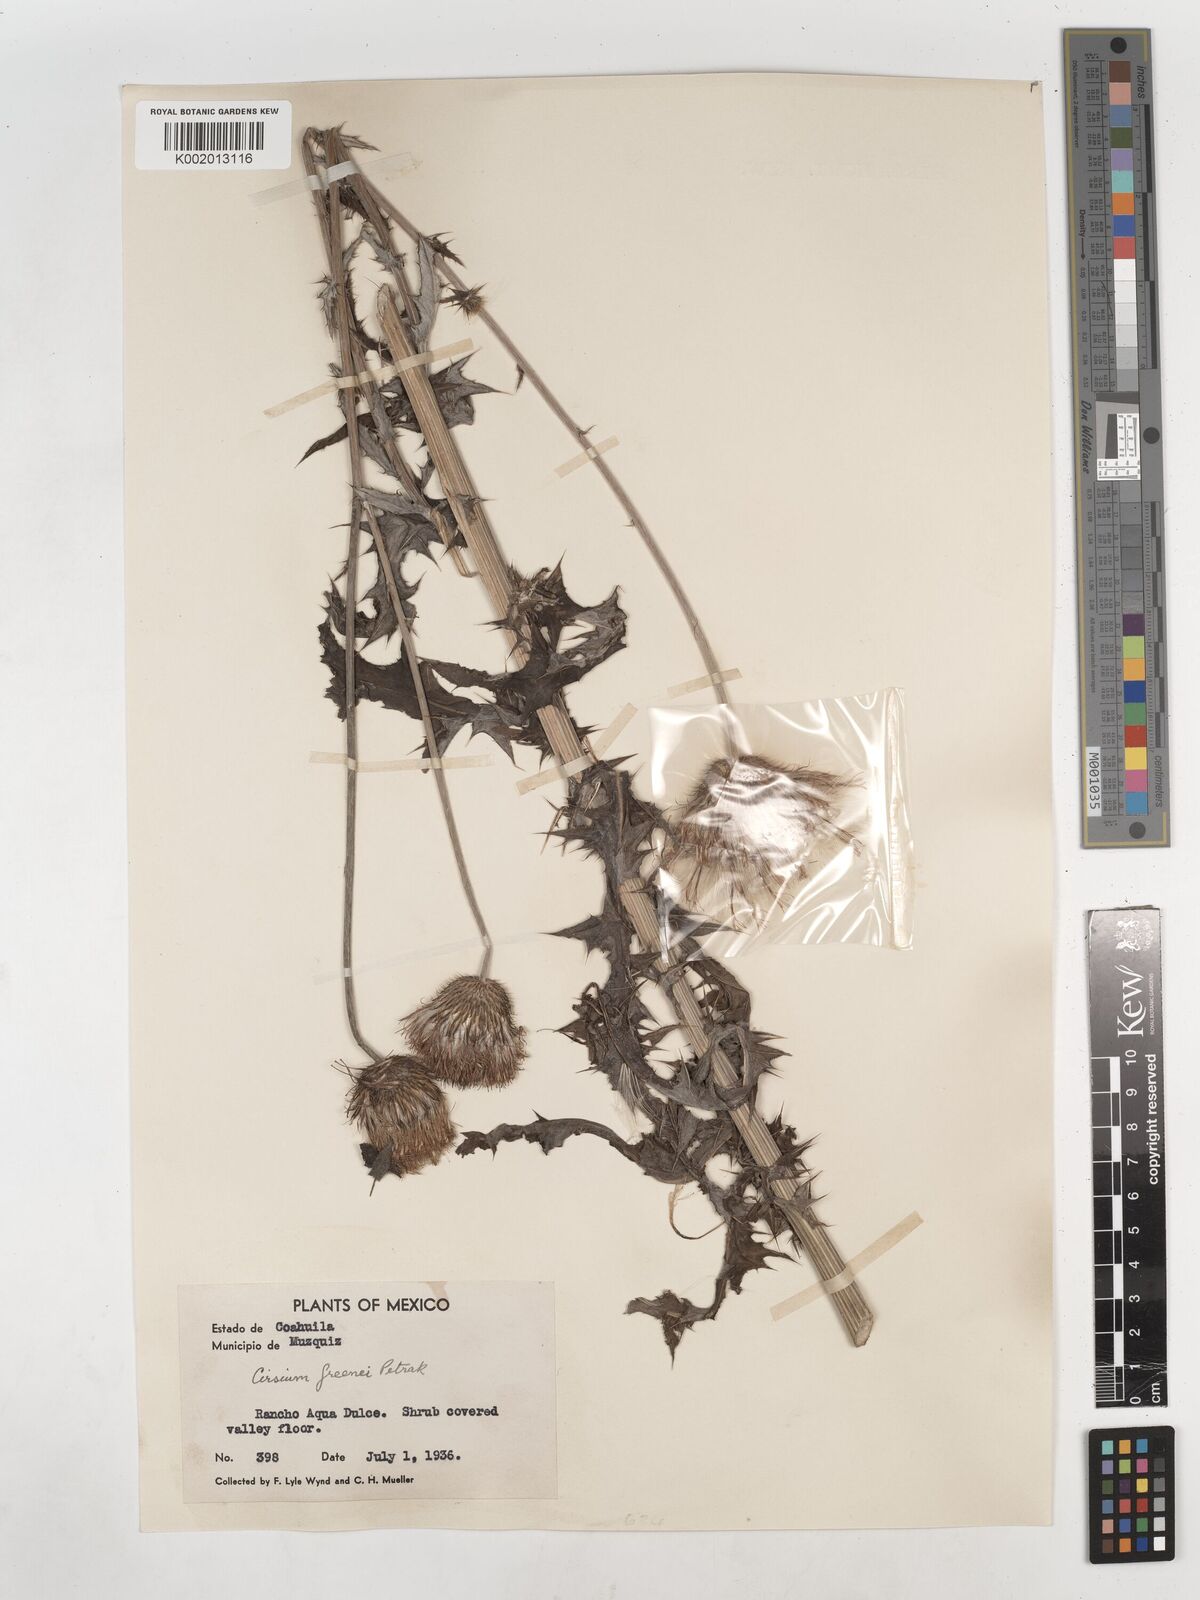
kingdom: Plantae
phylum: Tracheophyta
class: Magnoliopsida
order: Asterales
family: Asteraceae
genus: Cirsium
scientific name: Cirsium texanum
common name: Texas purple thistle
